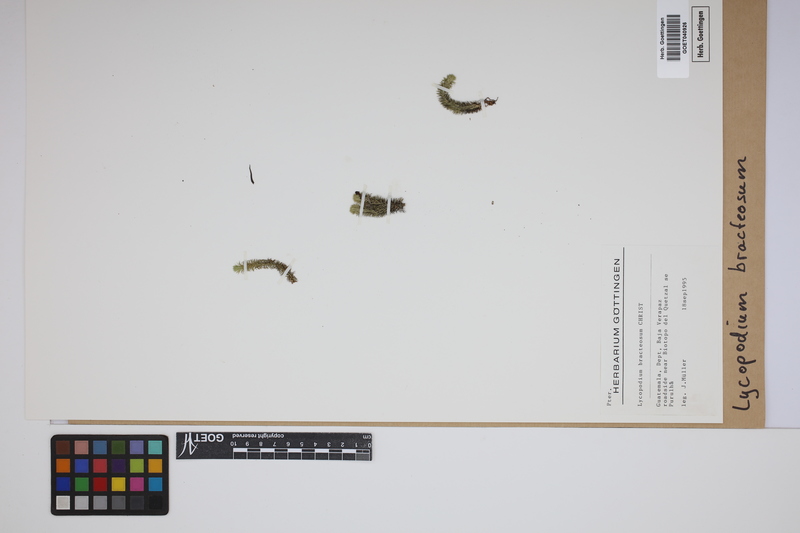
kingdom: Plantae
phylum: Tracheophyta
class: Lycopodiopsida
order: Lycopodiales
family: Lycopodiaceae
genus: Lycopodium
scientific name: Lycopodium
